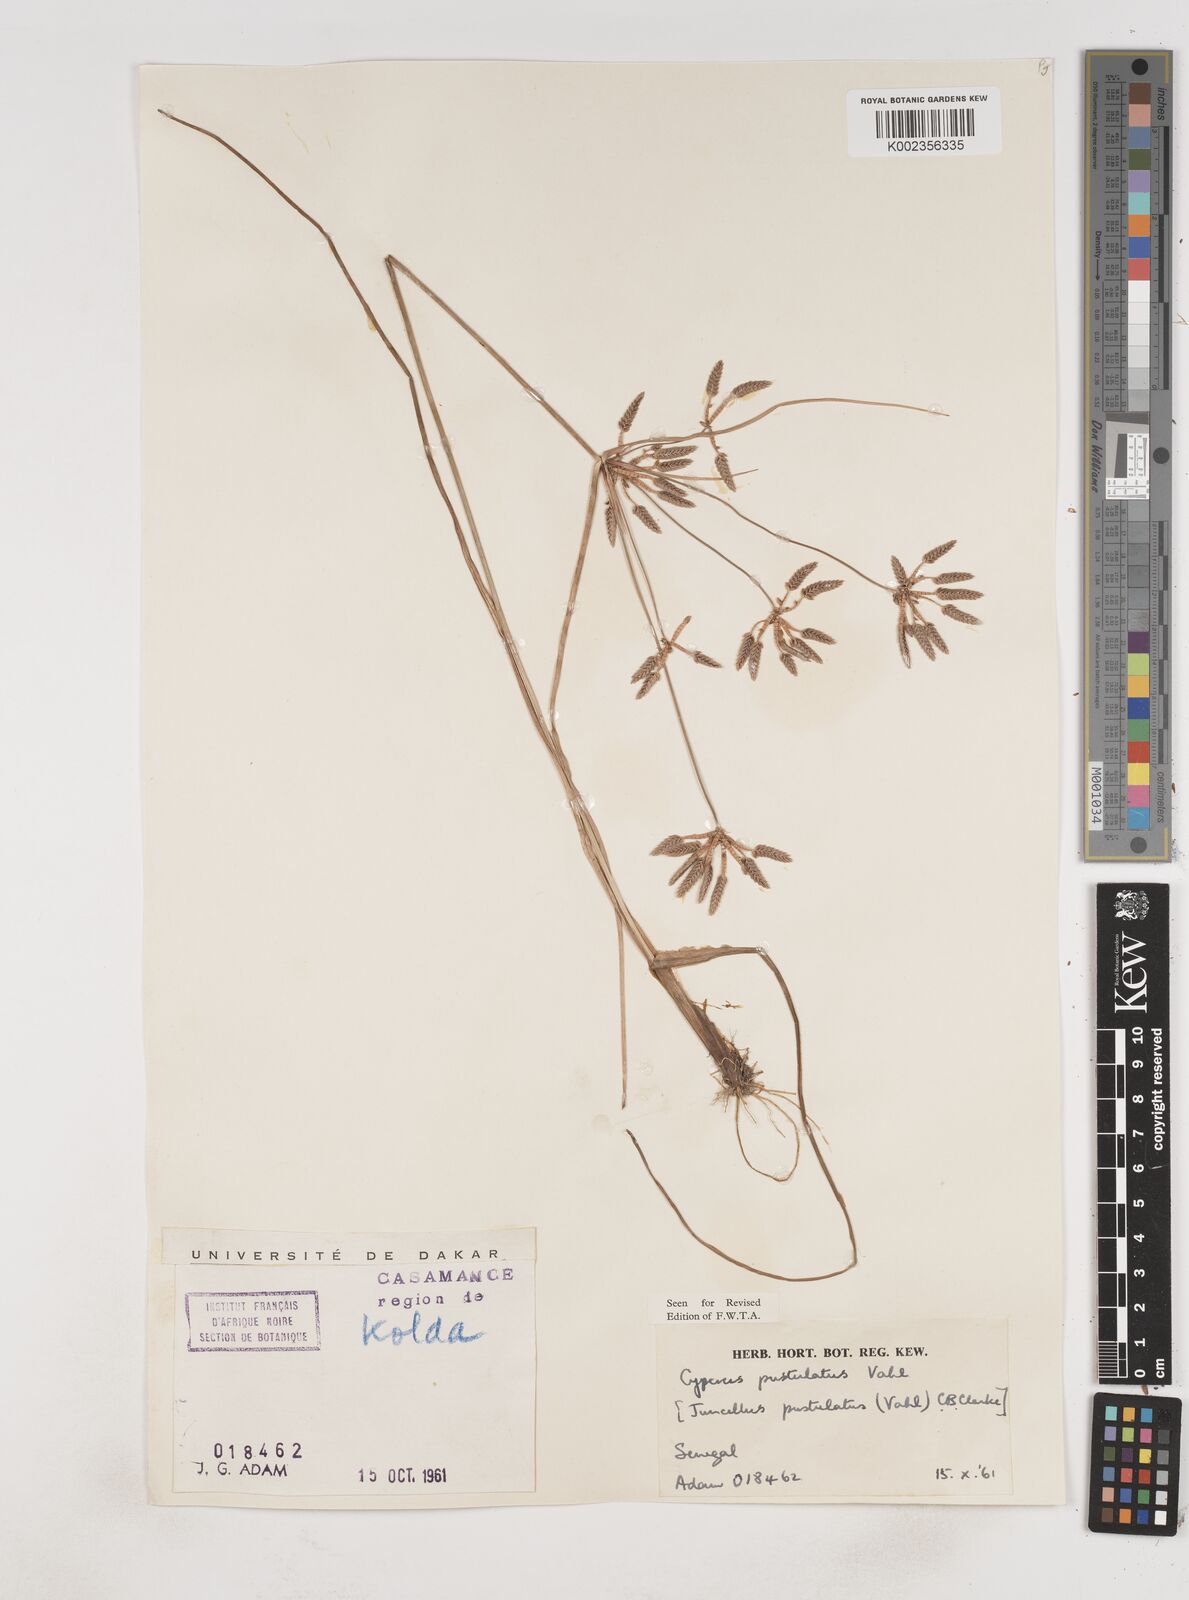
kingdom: Plantae
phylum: Tracheophyta
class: Liliopsida
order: Poales
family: Cyperaceae
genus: Cyperus
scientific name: Cyperus pustulatus
